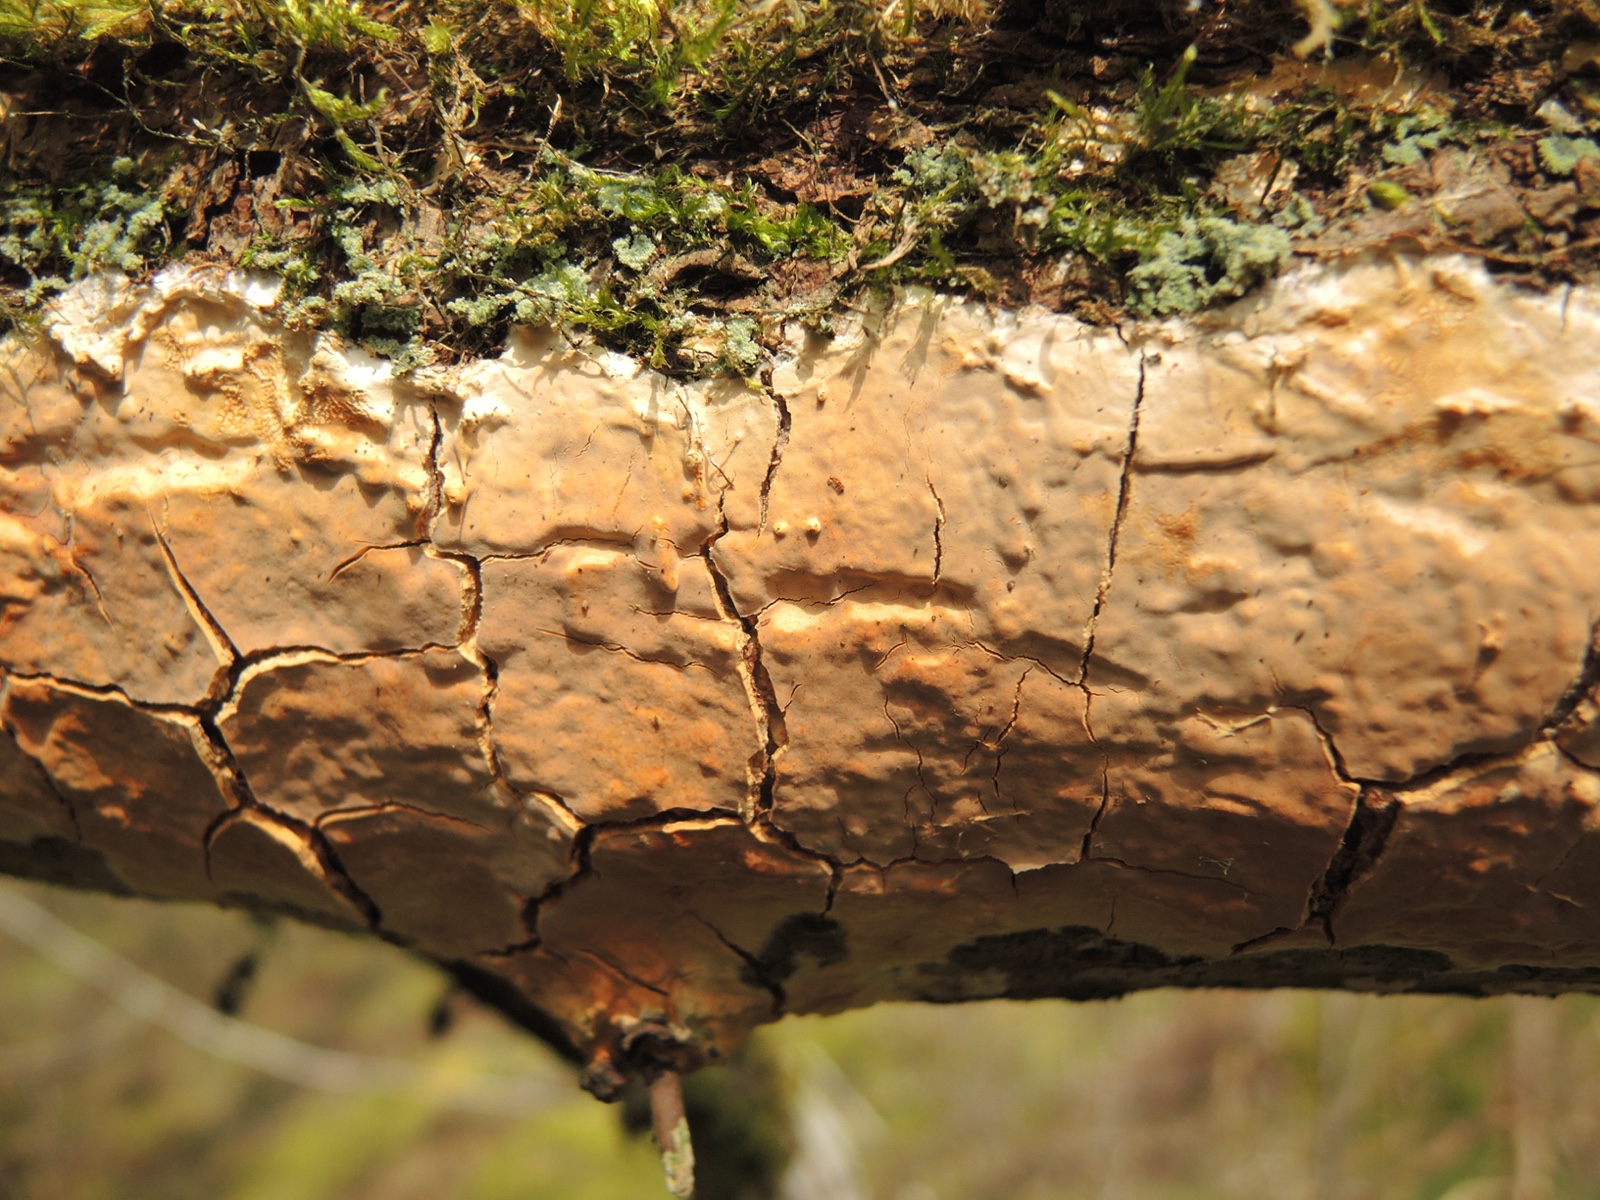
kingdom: Fungi
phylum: Basidiomycota
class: Agaricomycetes
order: Russulales
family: Peniophoraceae
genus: Scytinostroma
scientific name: Scytinostroma hemidichophyticum
